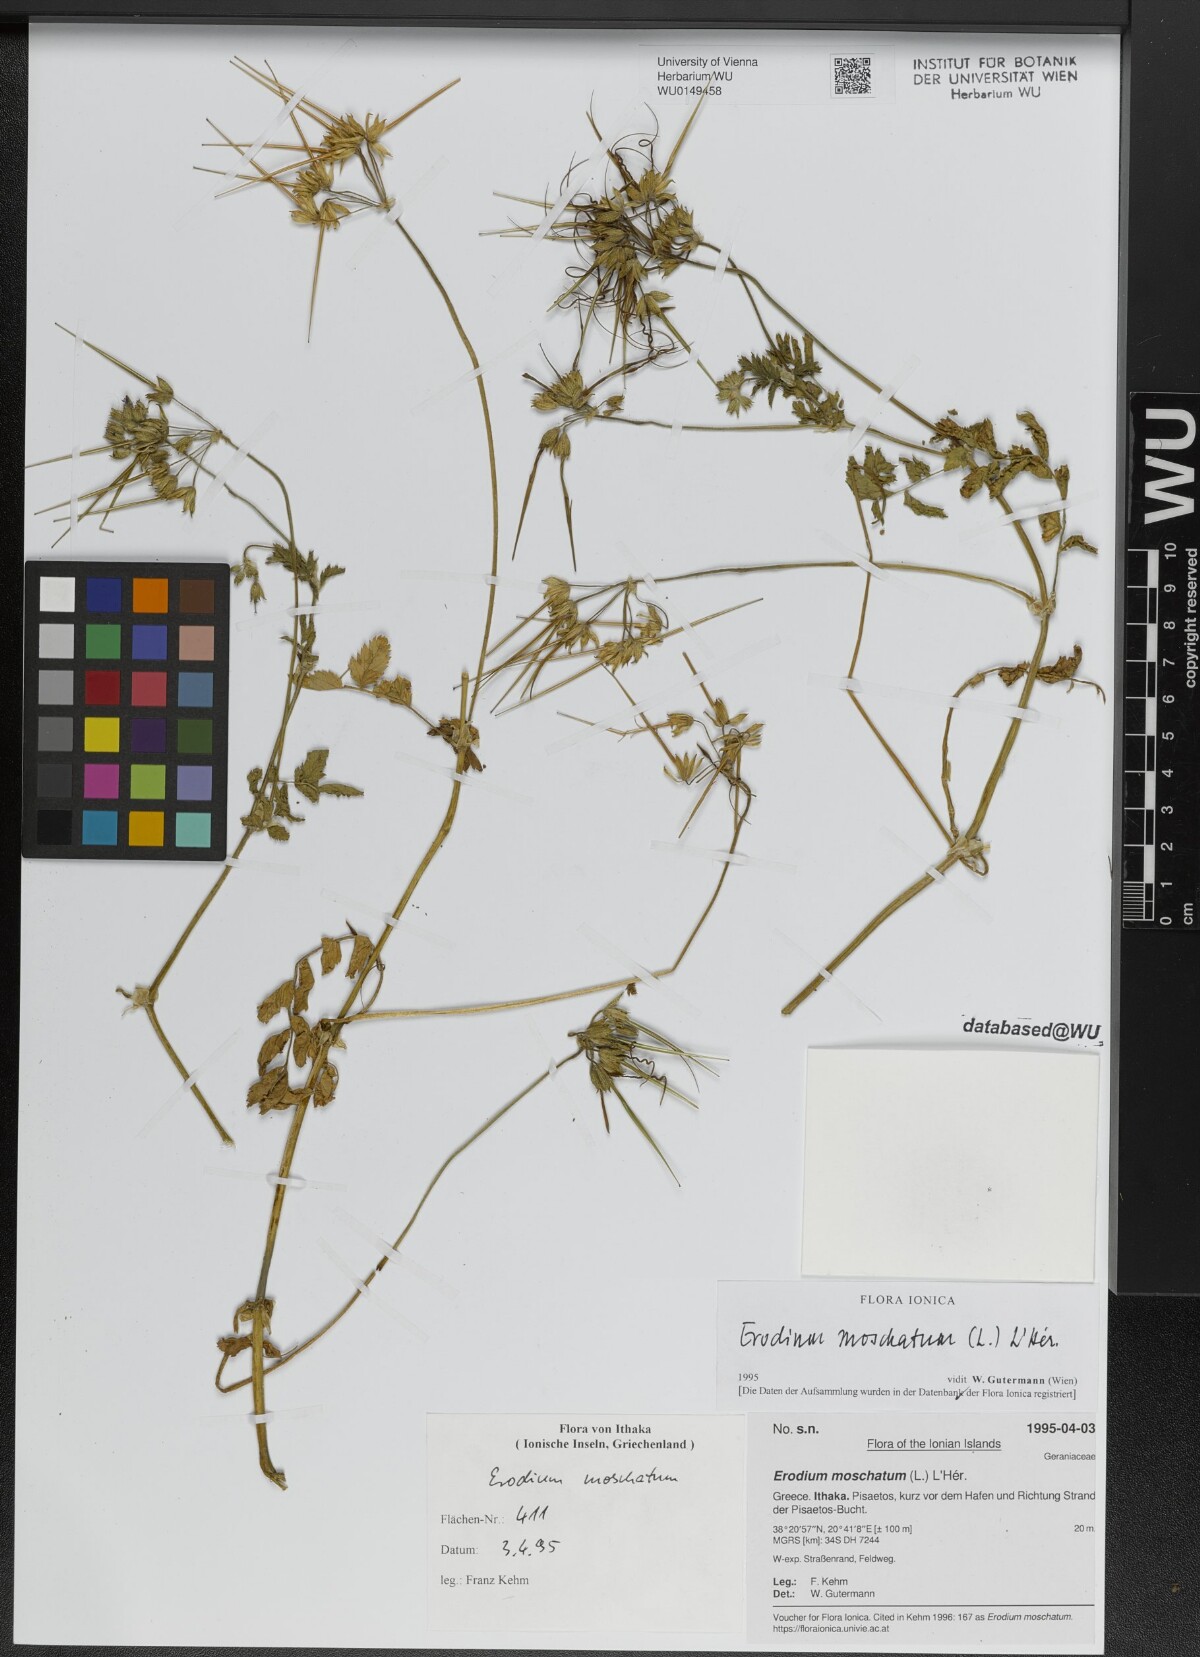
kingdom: Plantae
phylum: Tracheophyta
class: Magnoliopsida
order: Geraniales
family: Geraniaceae
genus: Erodium
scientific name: Erodium moschatum
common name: Musk stork's-bill
